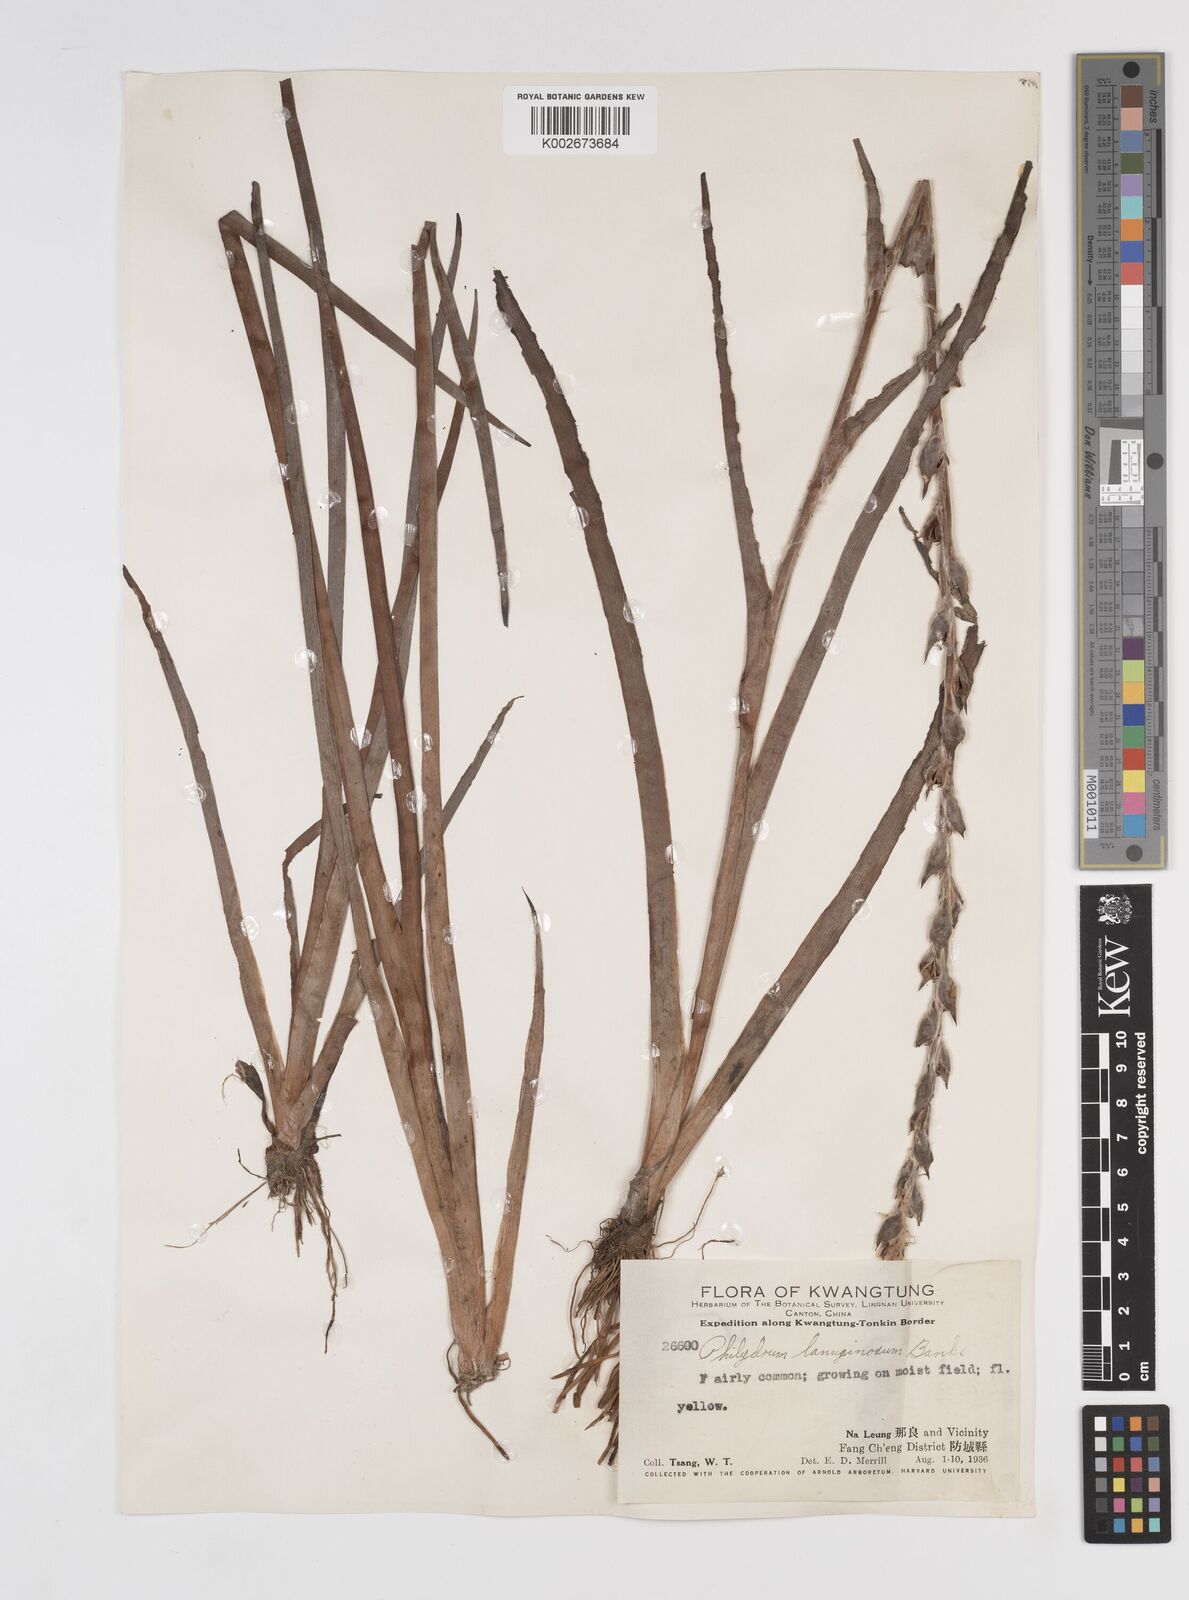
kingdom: Plantae
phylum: Tracheophyta
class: Liliopsida
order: Commelinales
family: Philydraceae
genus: Philydrum
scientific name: Philydrum
